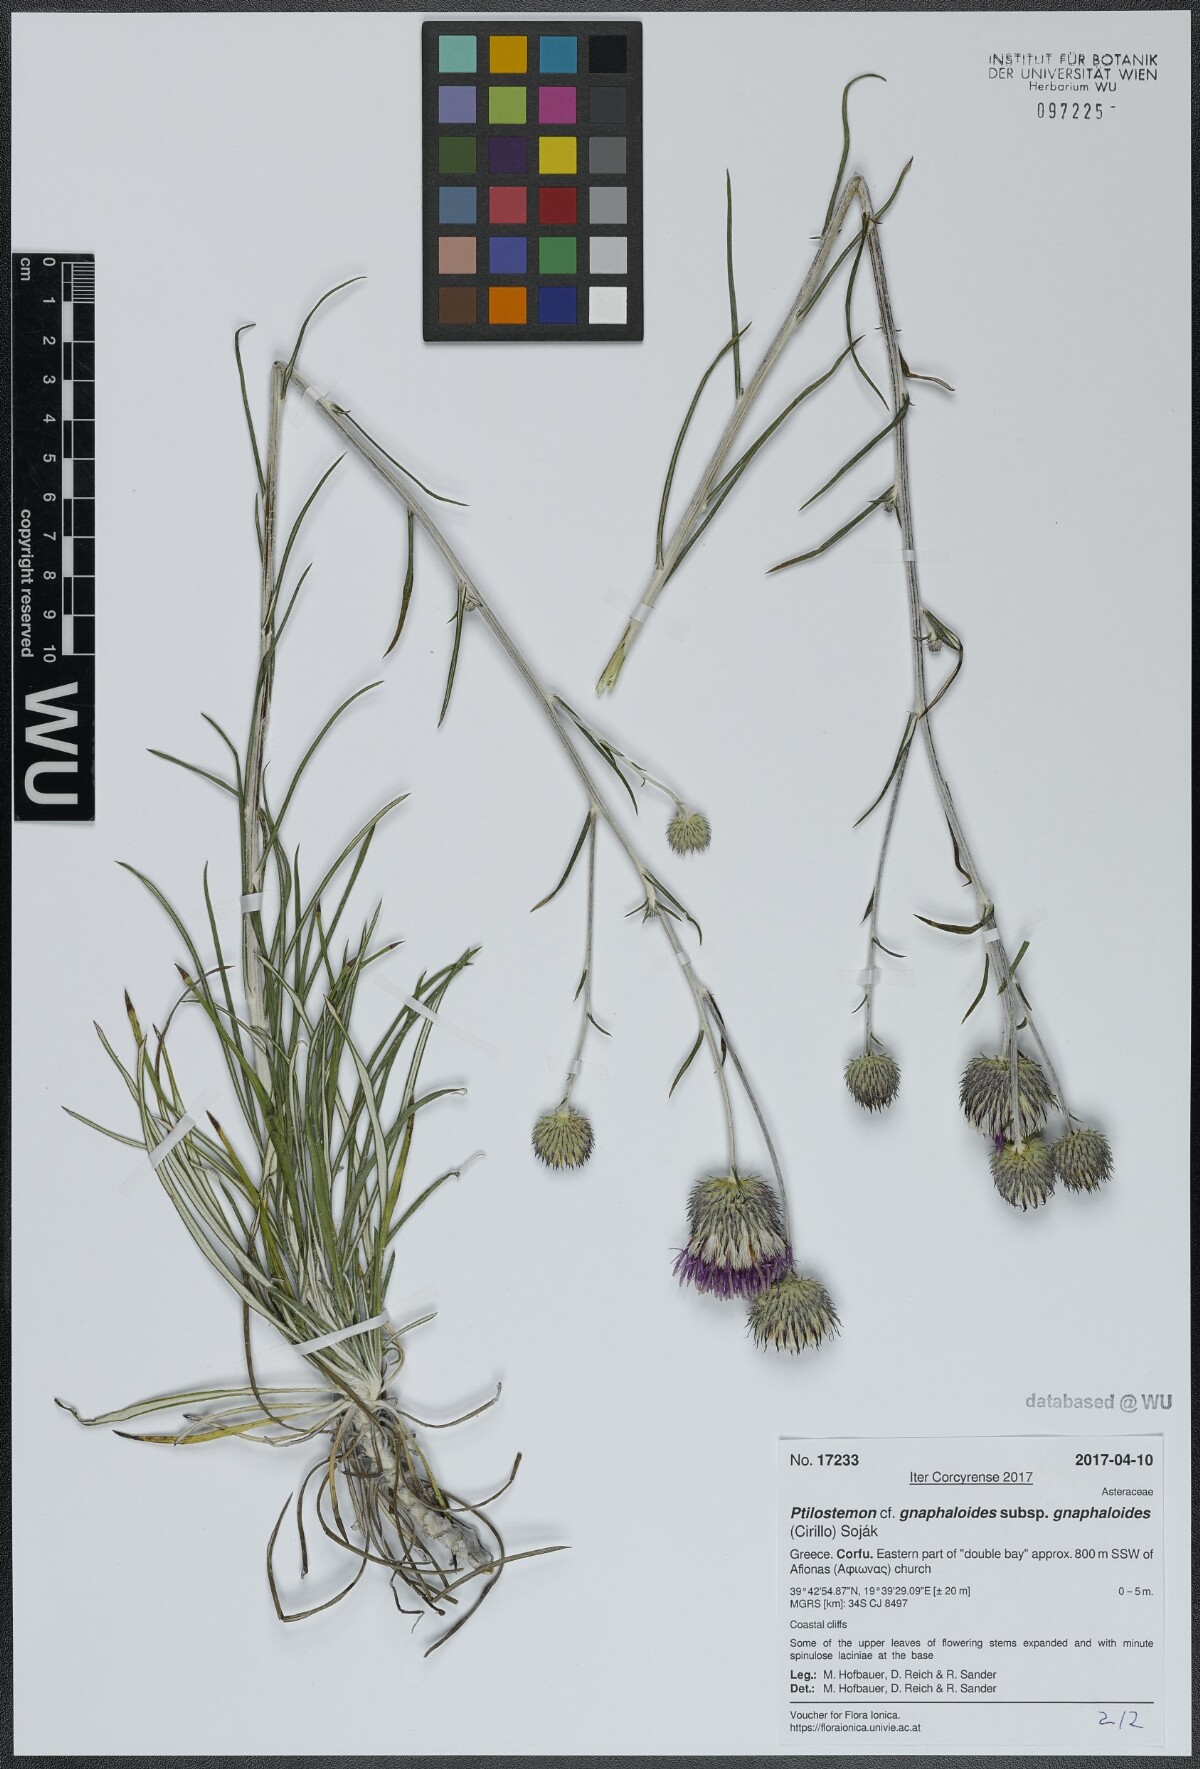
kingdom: Plantae
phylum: Tracheophyta
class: Magnoliopsida
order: Asterales
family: Asteraceae
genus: Ptilostemon
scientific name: Ptilostemon gnaphaloides
